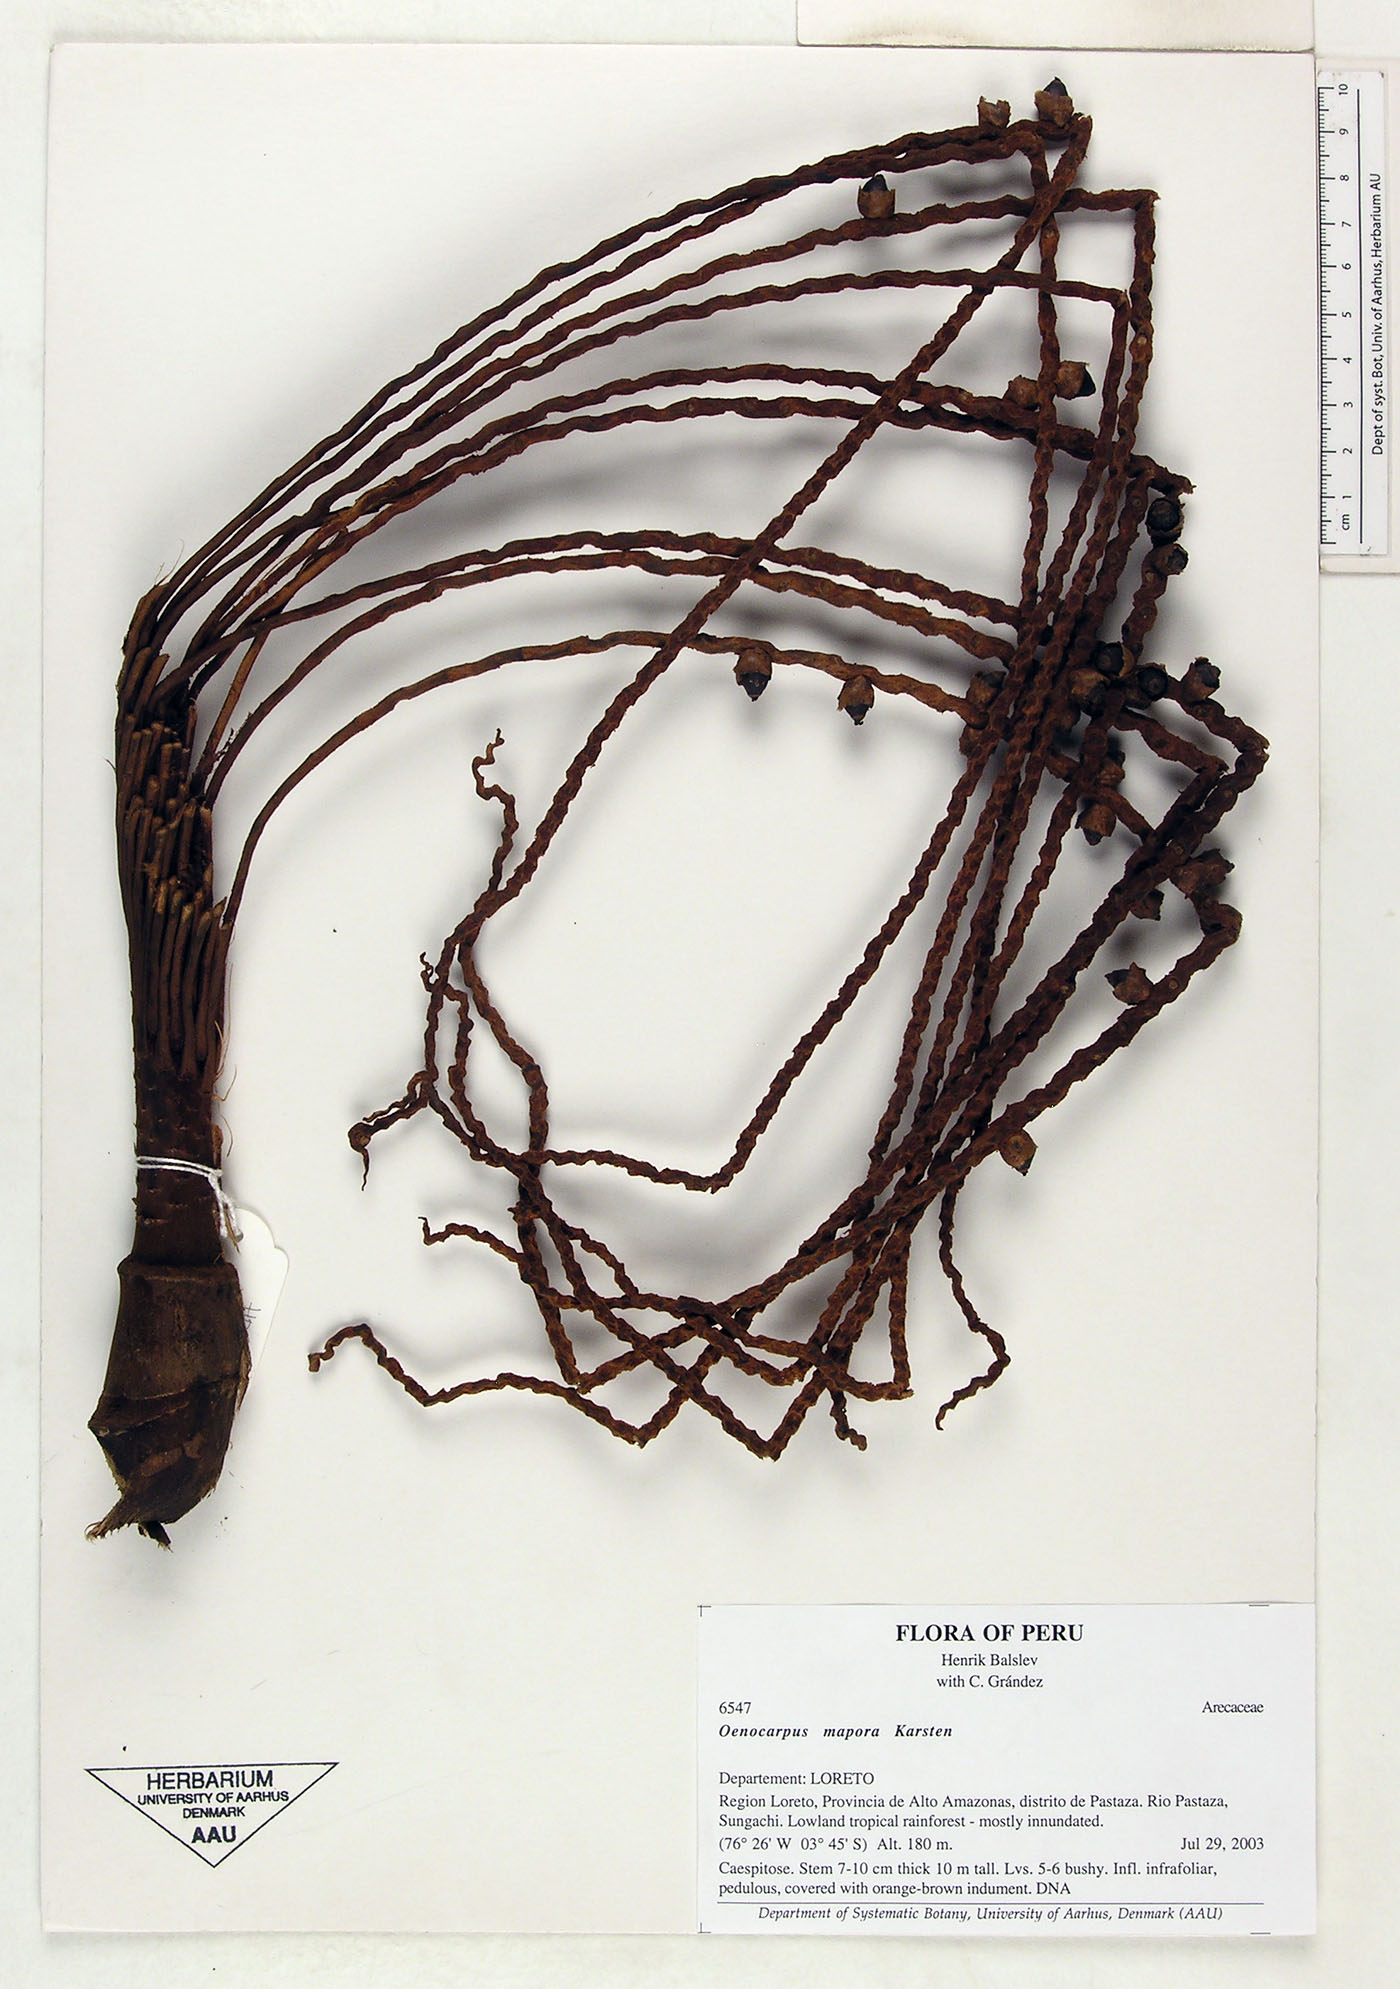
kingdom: Plantae
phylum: Tracheophyta
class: Liliopsida
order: Arecales
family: Arecaceae
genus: Oenocarpus
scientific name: Oenocarpus mapora
